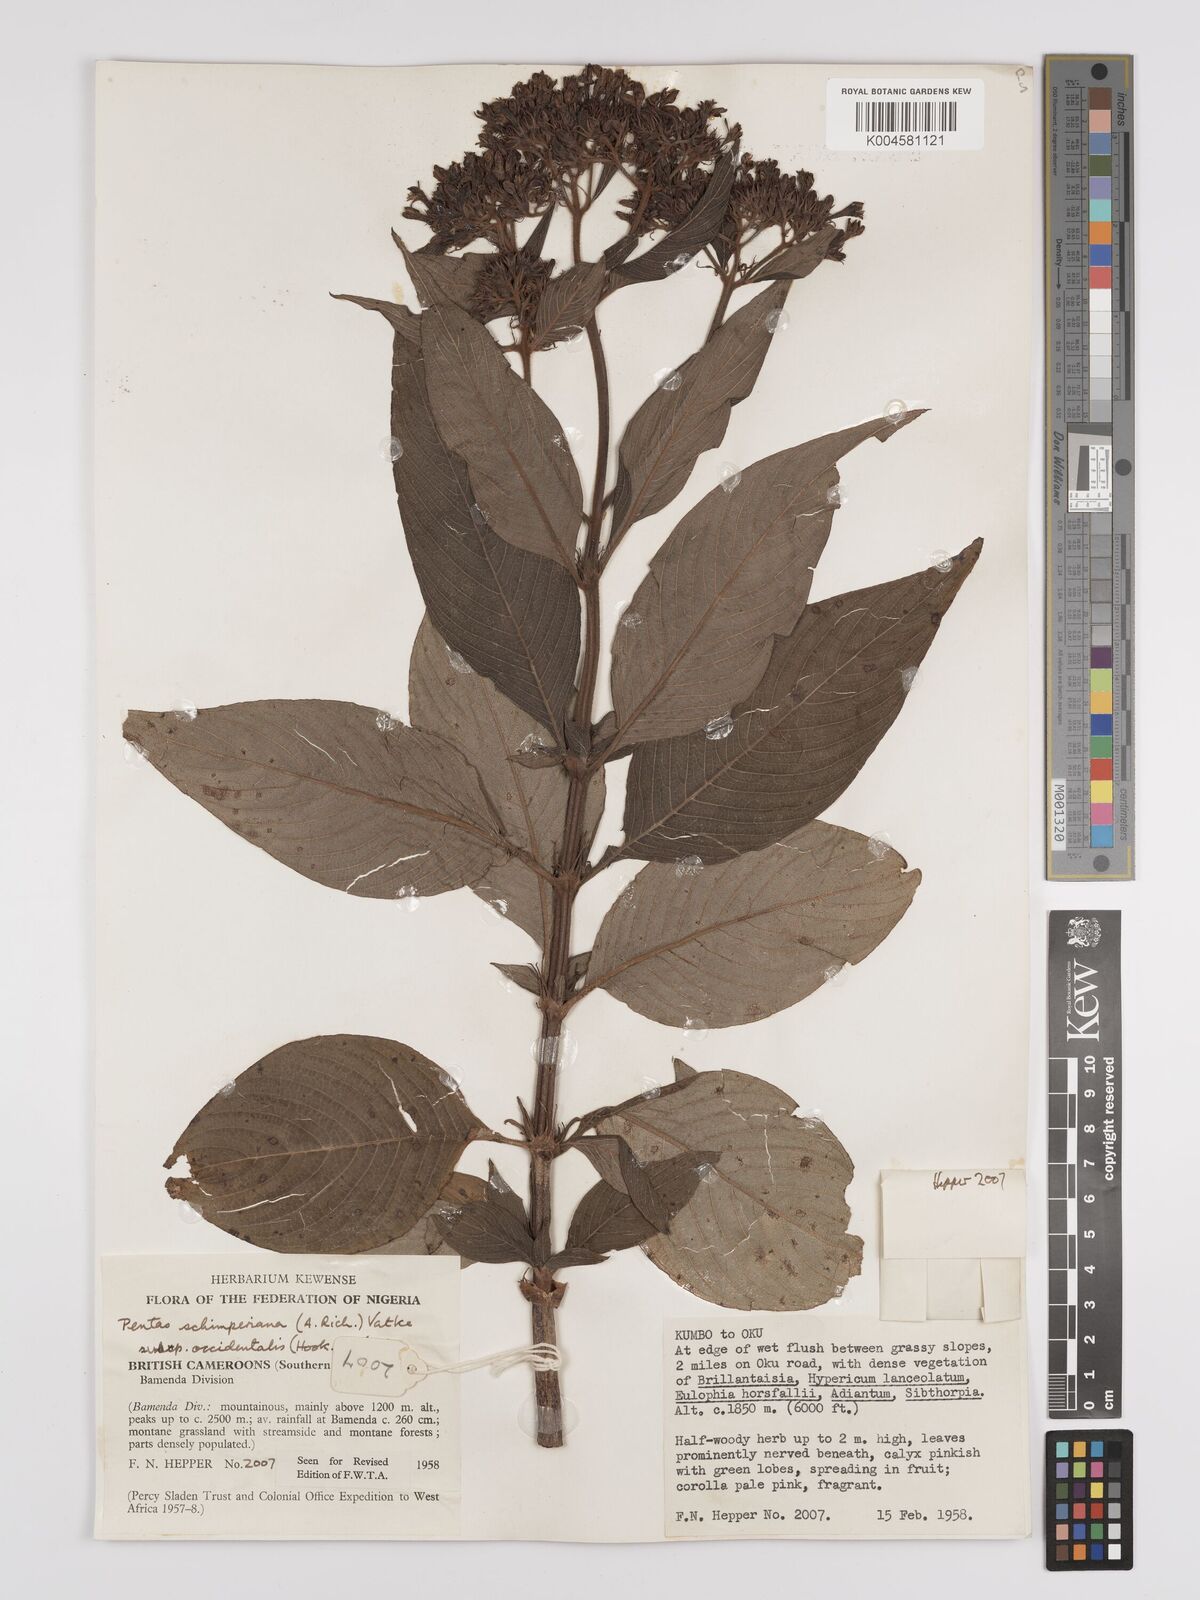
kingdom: Plantae
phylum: Tracheophyta
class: Magnoliopsida
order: Gentianales
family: Rubiaceae
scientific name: Rubiaceae
